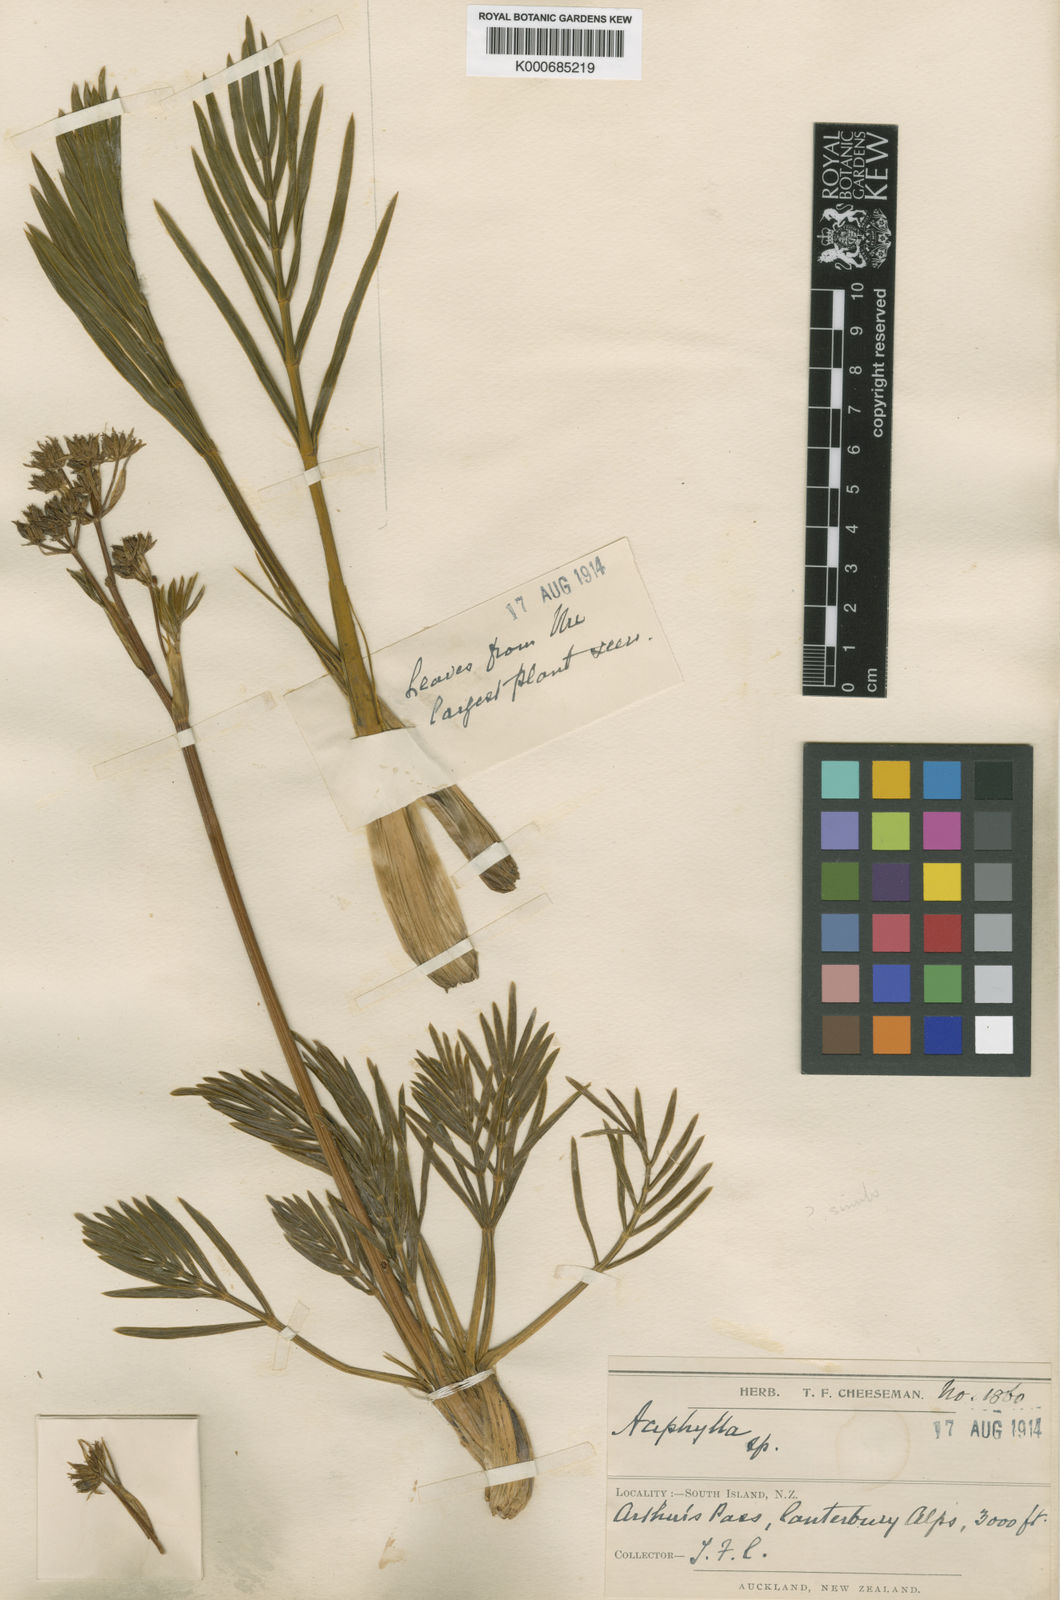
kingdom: Plantae
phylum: Tracheophyta
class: Magnoliopsida
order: Apiales
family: Apiaceae
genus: Aciphylla
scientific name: Aciphylla similis
